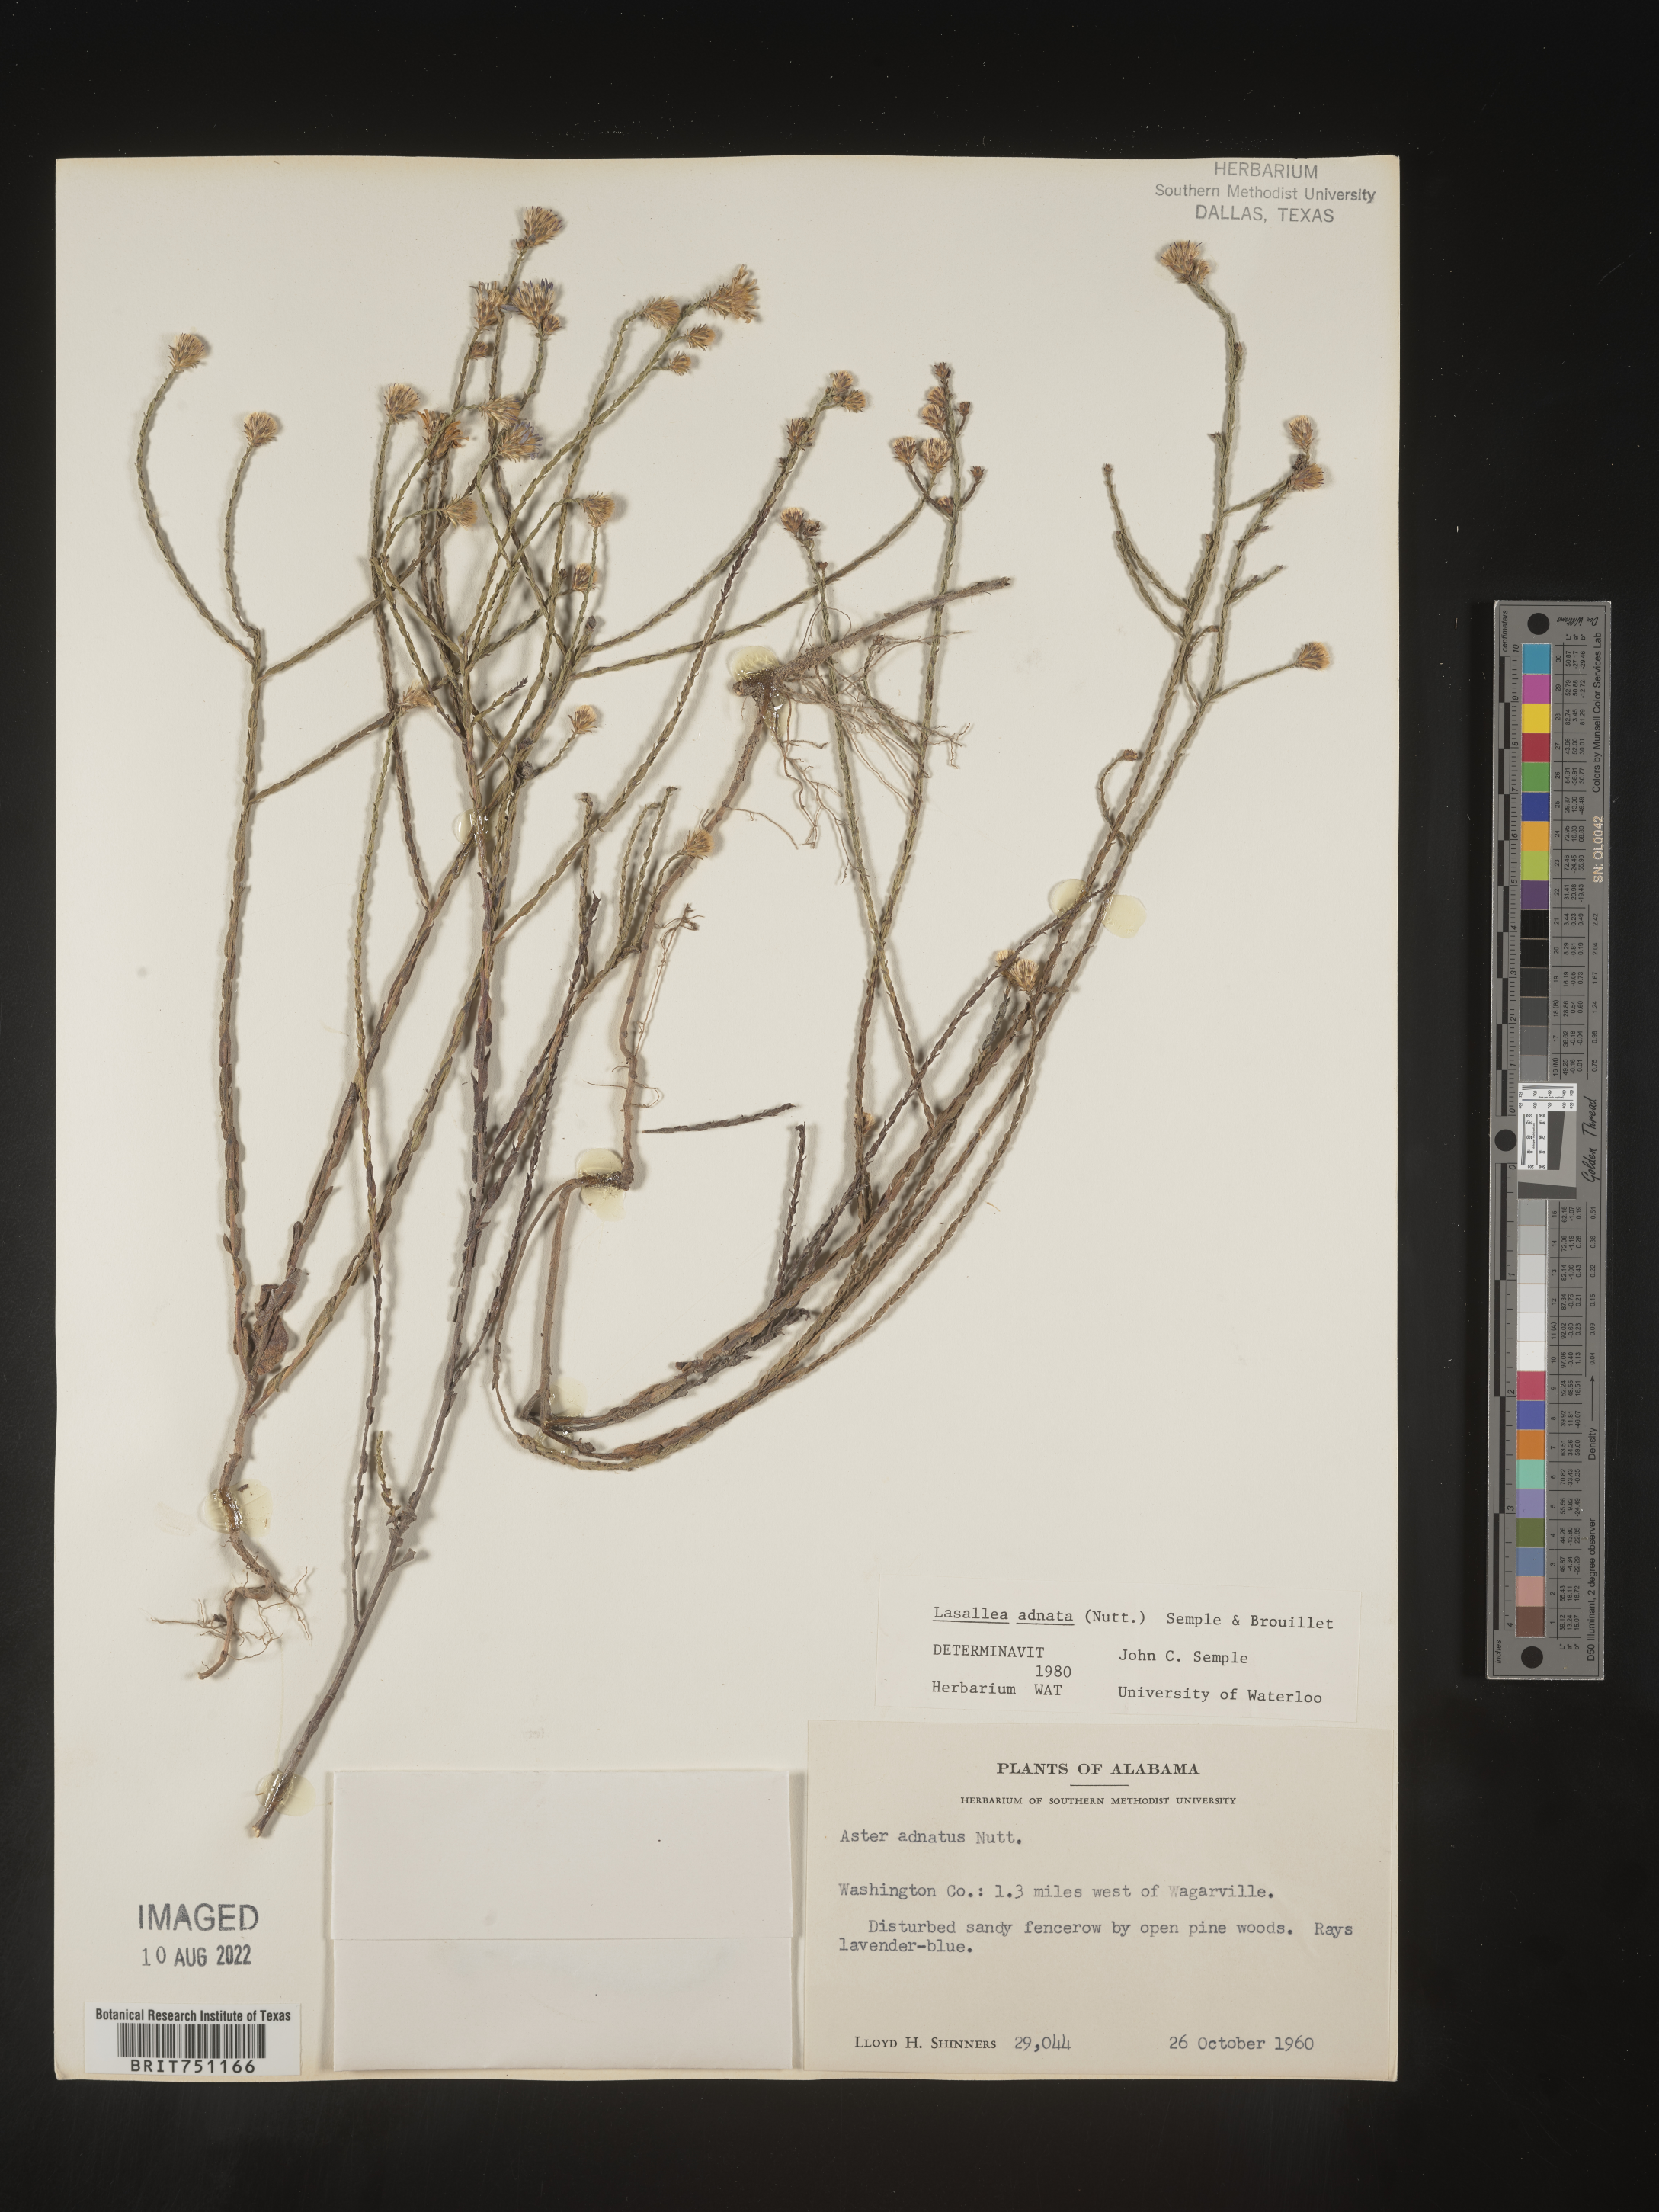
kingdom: Plantae
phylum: Tracheophyta
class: Magnoliopsida
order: Asterales
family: Asteraceae
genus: Symphyotrichum
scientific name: Symphyotrichum adnatum
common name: Scale-leaf aster
